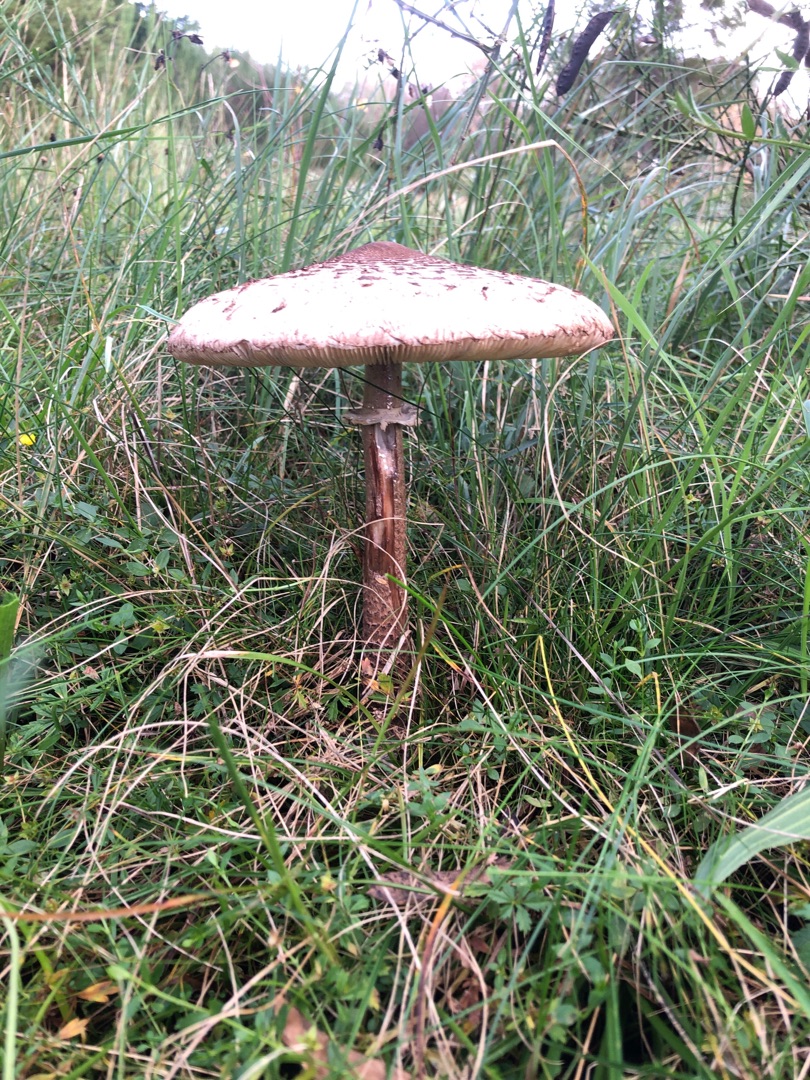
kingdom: Fungi
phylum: Basidiomycota
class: Agaricomycetes
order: Agaricales
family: Agaricaceae
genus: Macrolepiota
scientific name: Macrolepiota procera
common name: Stor kæmpeparasolhat
